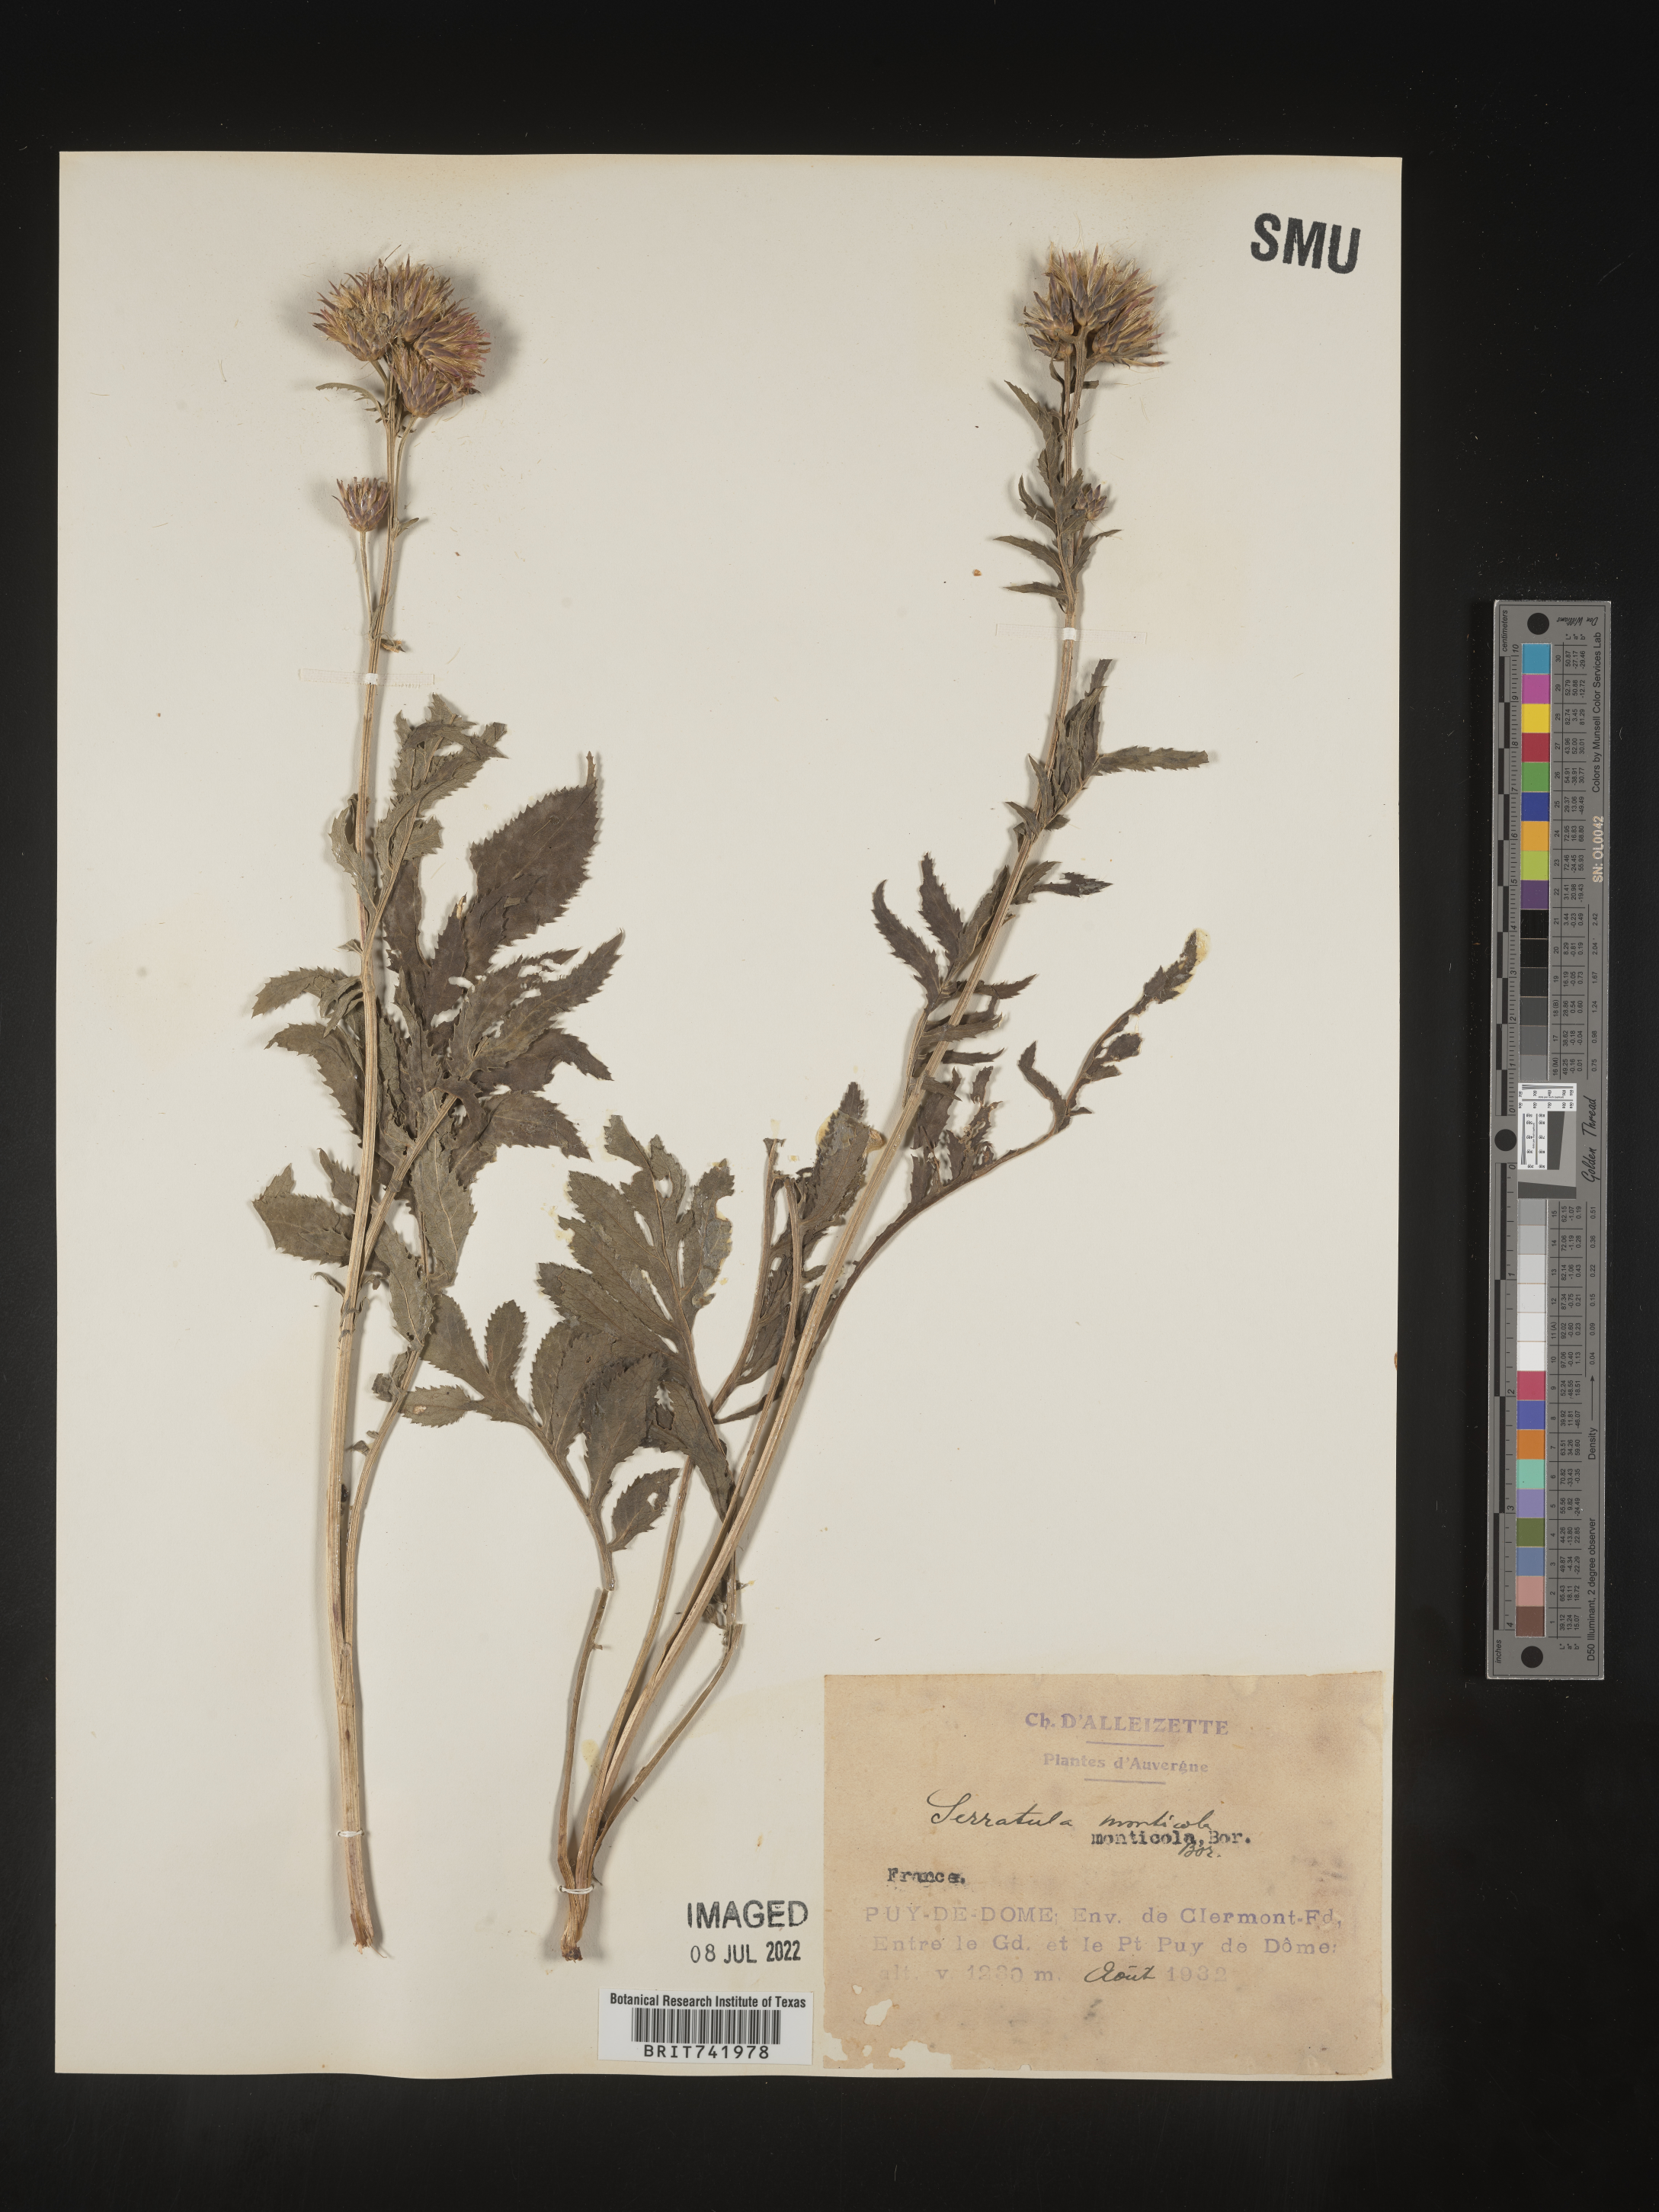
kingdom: Plantae
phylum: Tracheophyta
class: Magnoliopsida
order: Asterales
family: Asteraceae
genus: Serratula
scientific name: Serratula
